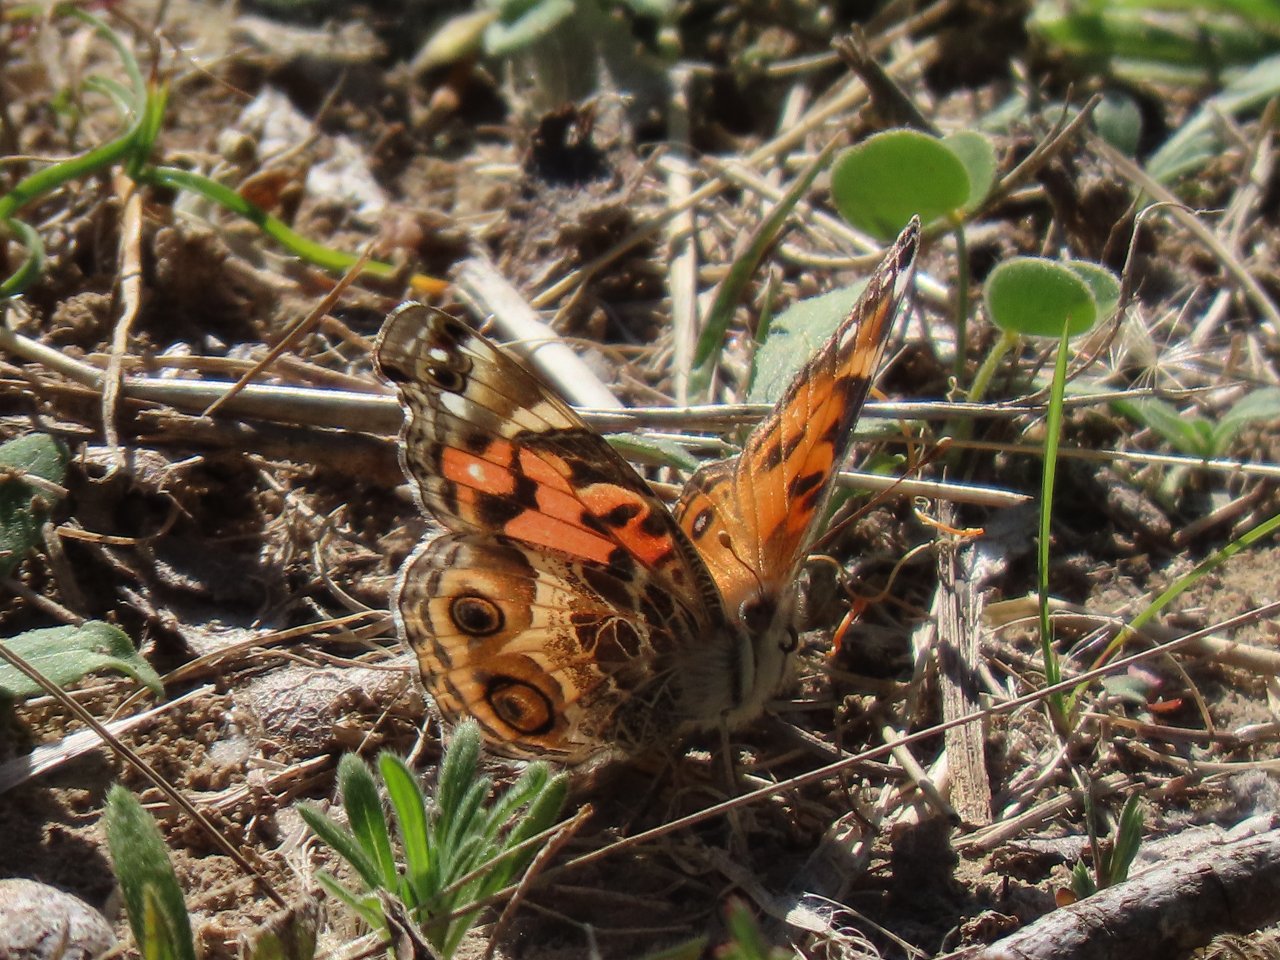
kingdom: Animalia
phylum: Arthropoda
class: Insecta
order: Lepidoptera
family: Nymphalidae
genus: Vanessa
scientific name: Vanessa virginiensis
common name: American Lady
